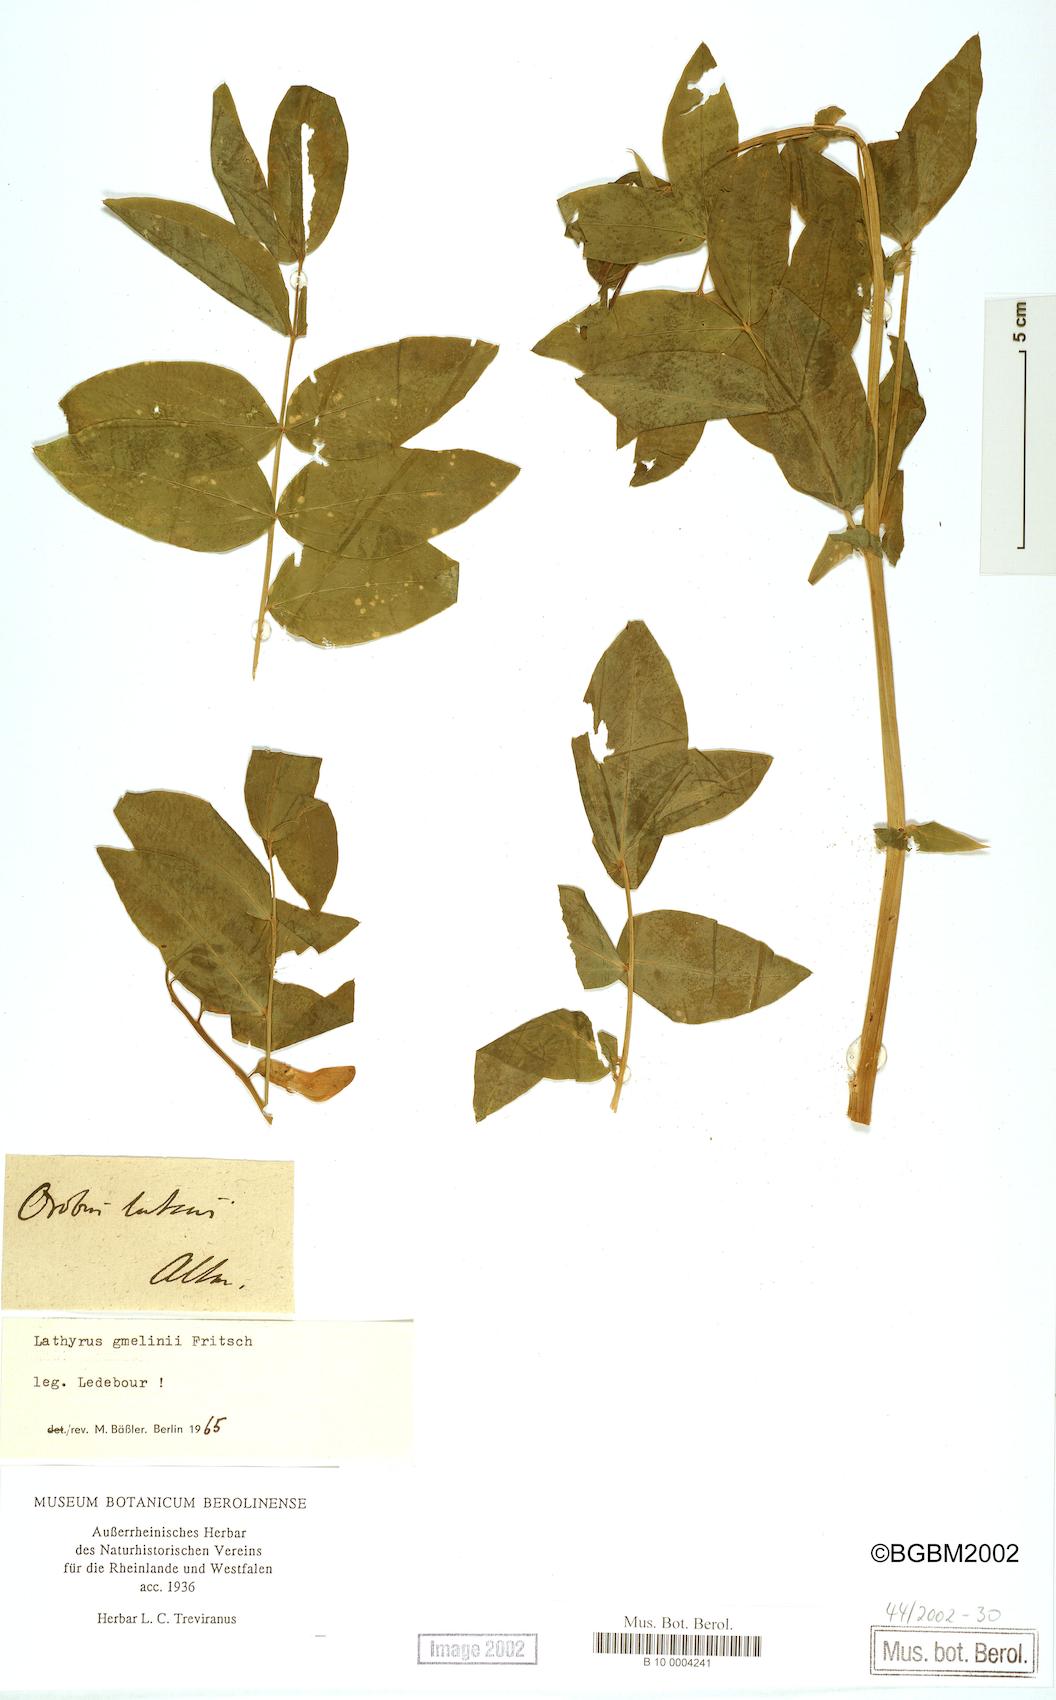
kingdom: Plantae
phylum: Tracheophyta
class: Magnoliopsida
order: Fabales
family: Fabaceae
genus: Lathyrus
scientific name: Lathyrus gmelinii
